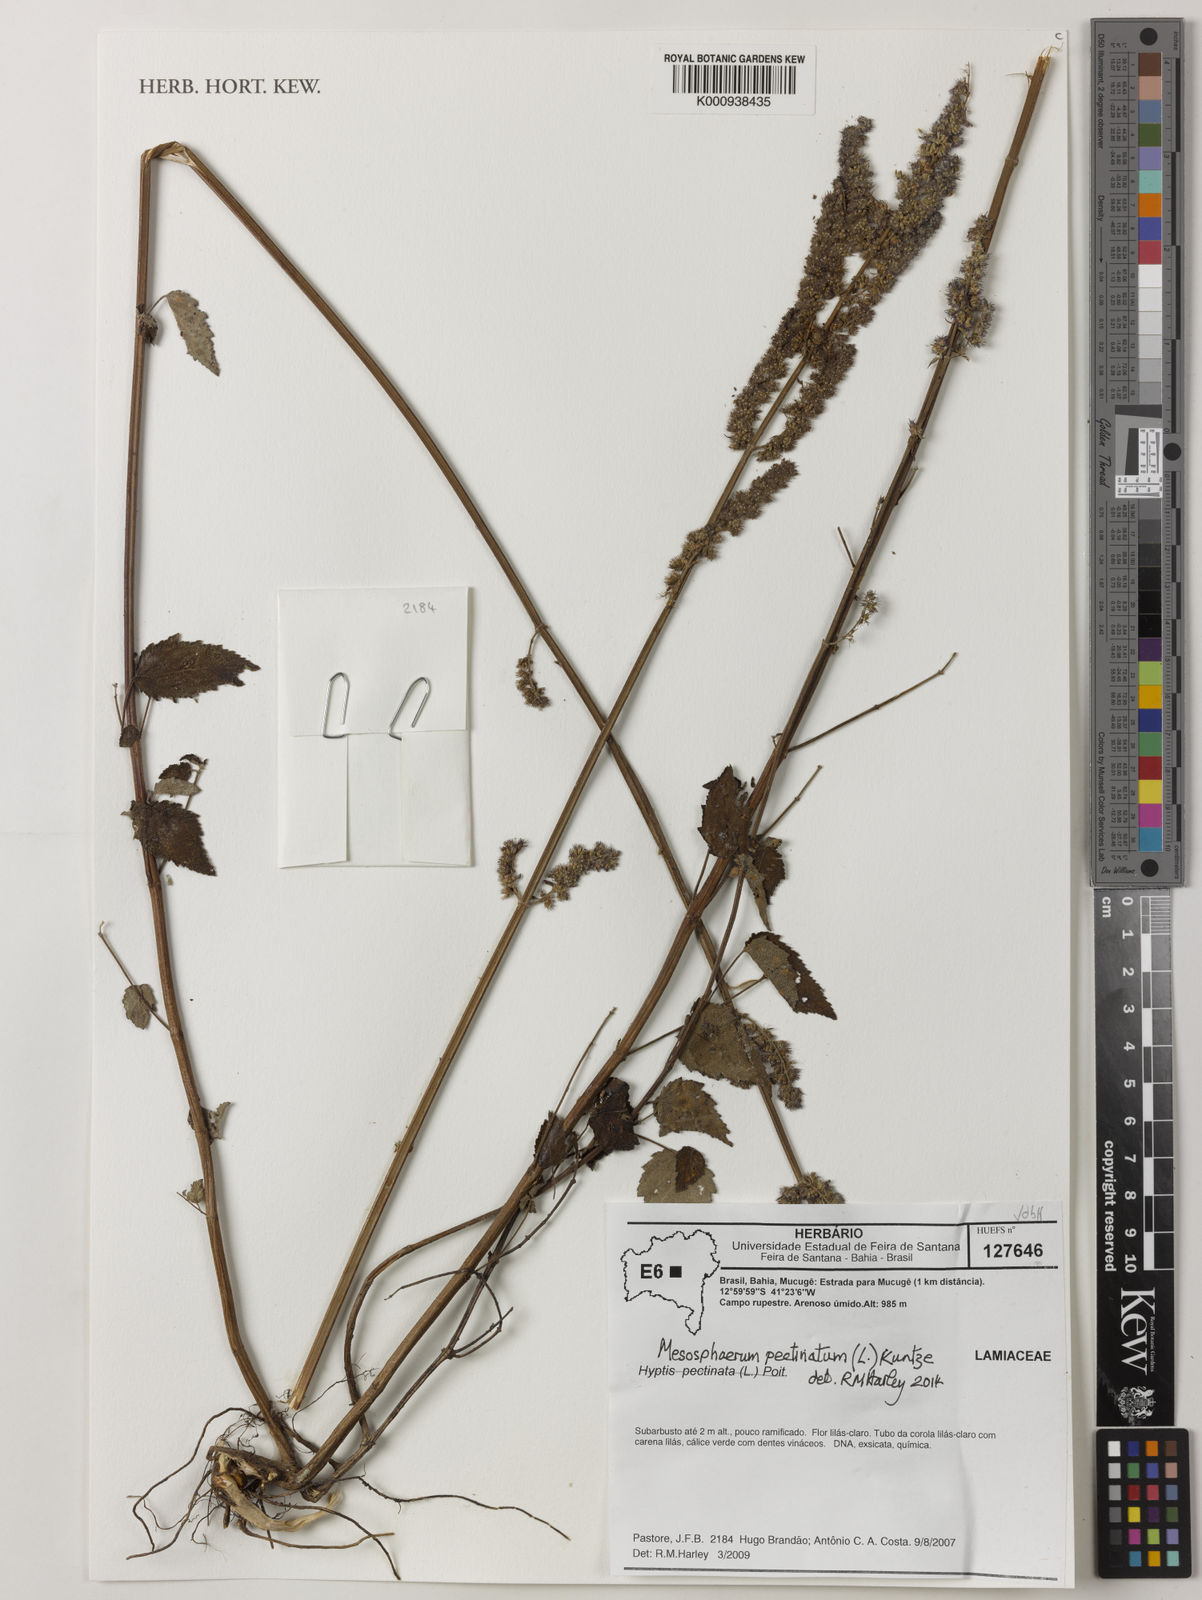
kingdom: Plantae
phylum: Tracheophyta
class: Magnoliopsida
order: Lamiales
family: Lamiaceae
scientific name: Lamiaceae
